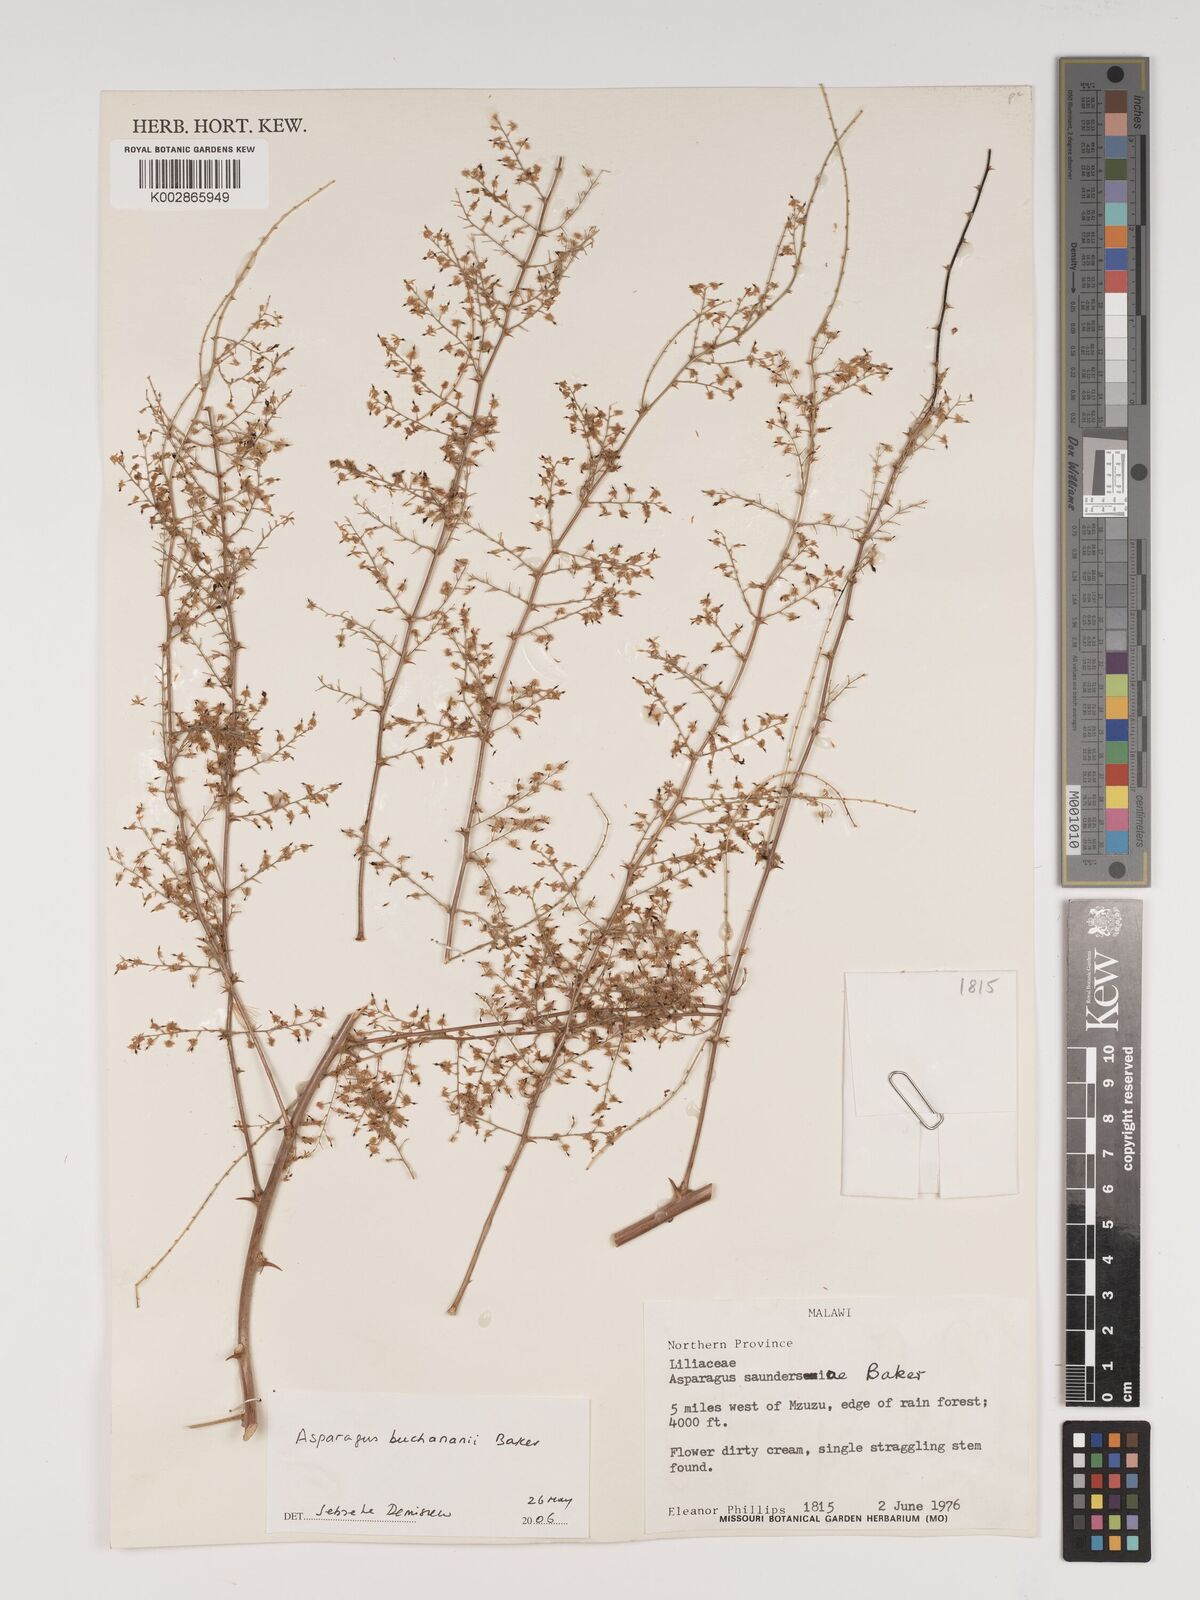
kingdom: Plantae
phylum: Tracheophyta
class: Liliopsida
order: Asparagales
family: Asparagaceae
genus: Asparagus
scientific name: Asparagus saundersiae
